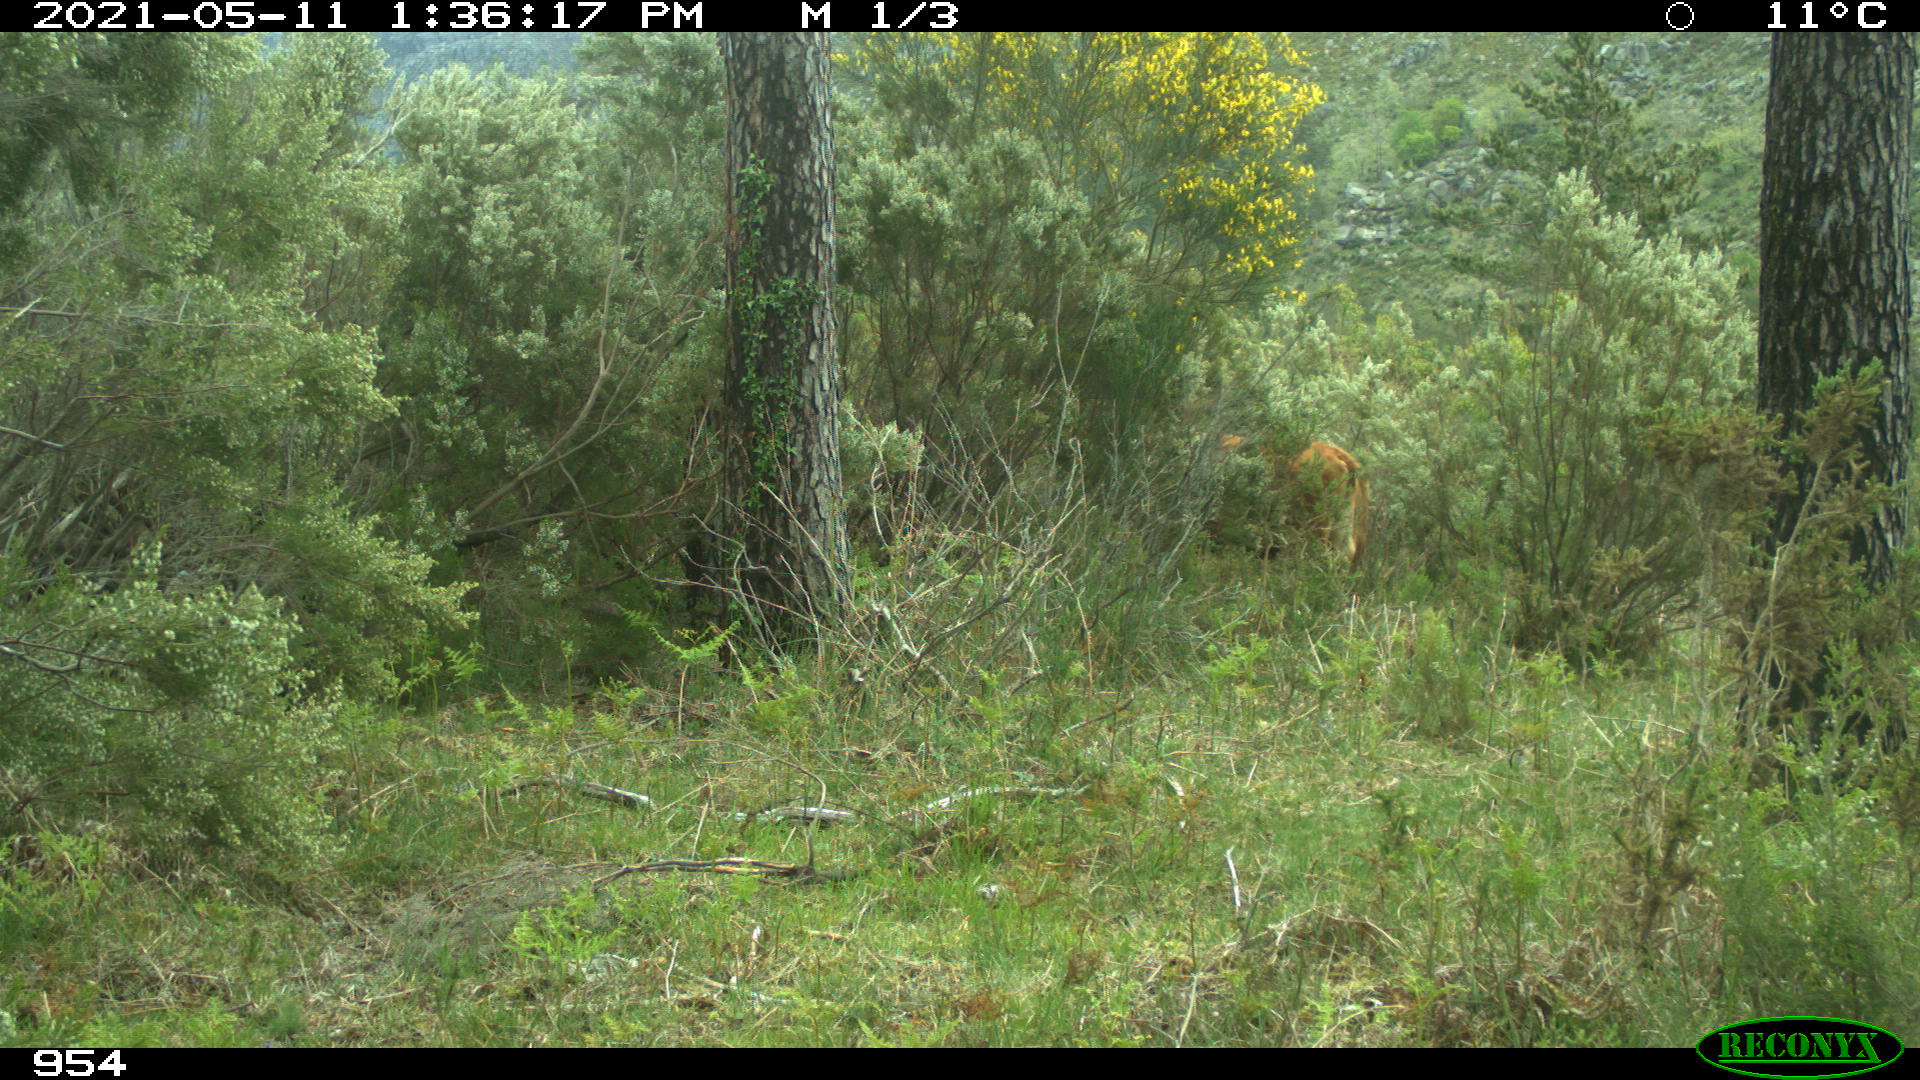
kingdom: Animalia
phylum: Chordata
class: Mammalia
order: Carnivora
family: Canidae
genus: Canis
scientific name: Canis lupus
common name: Gray wolf
